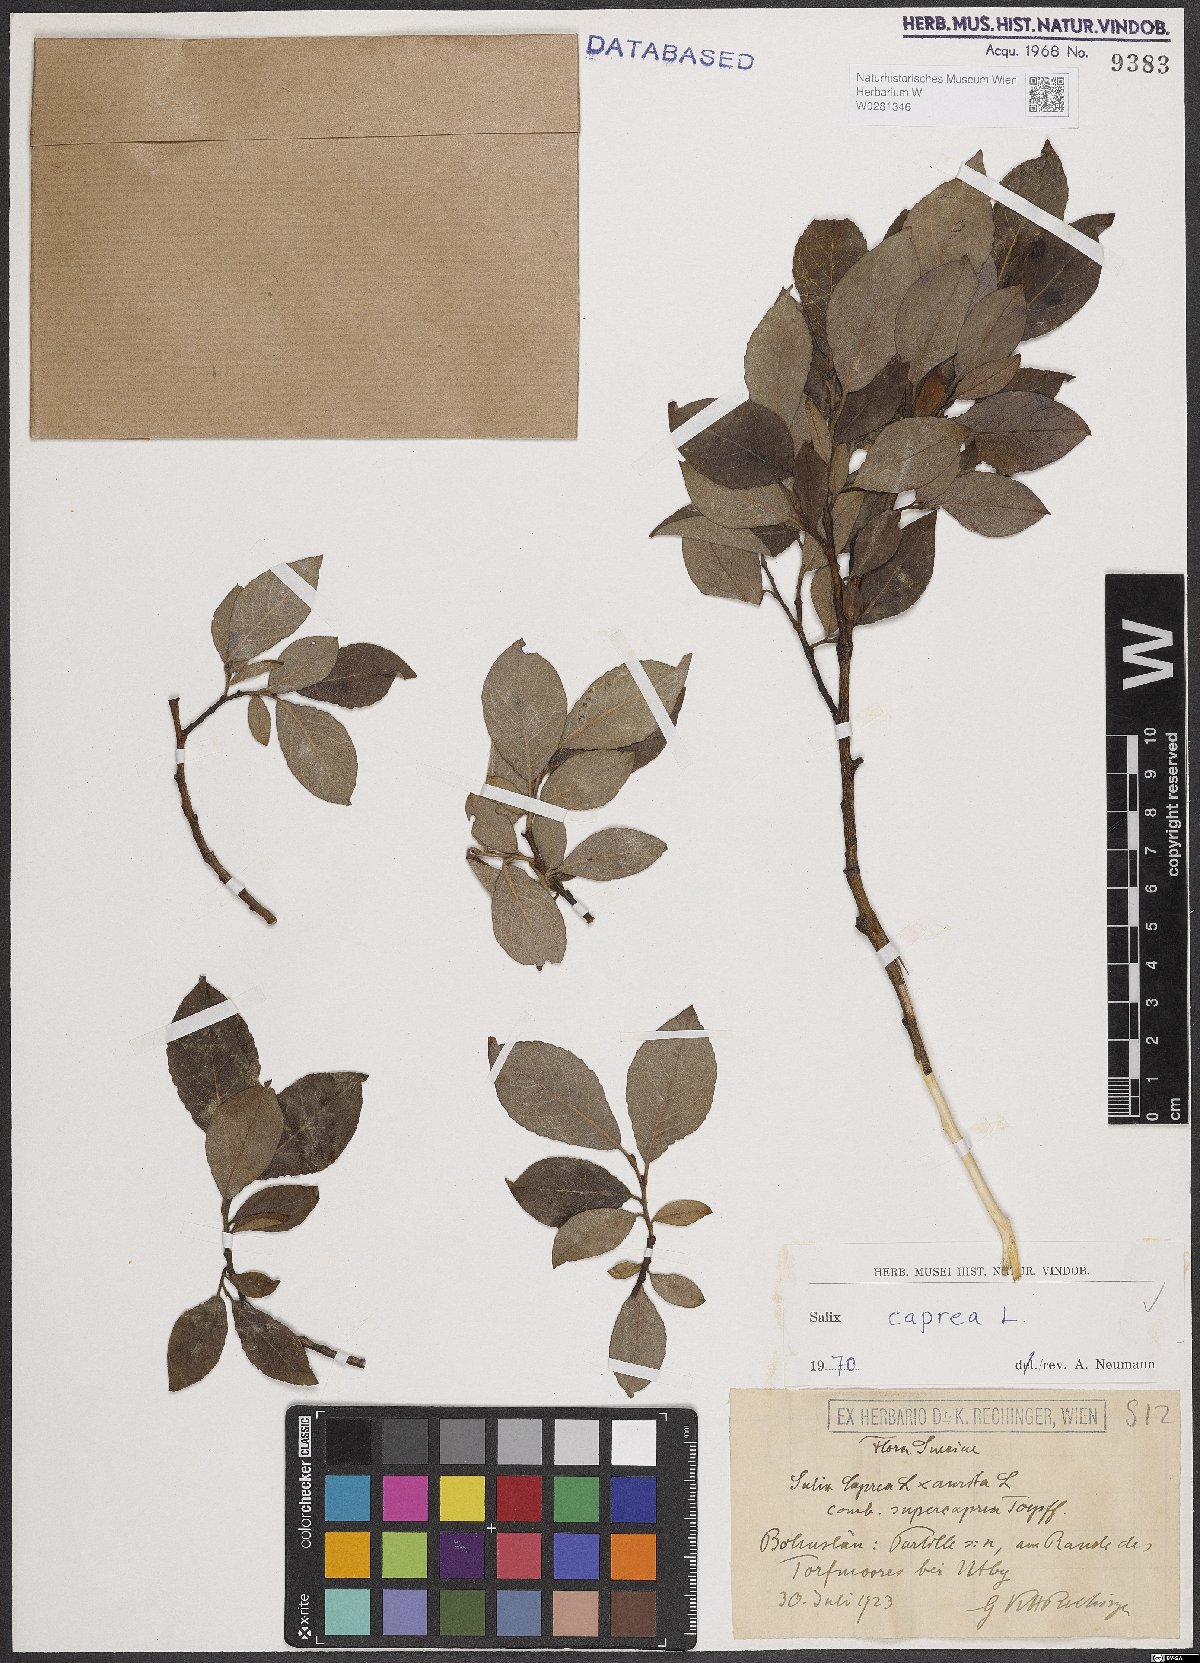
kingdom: Plantae
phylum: Tracheophyta
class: Magnoliopsida
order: Malpighiales
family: Salicaceae
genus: Salix
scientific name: Salix caprea
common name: Goat willow
